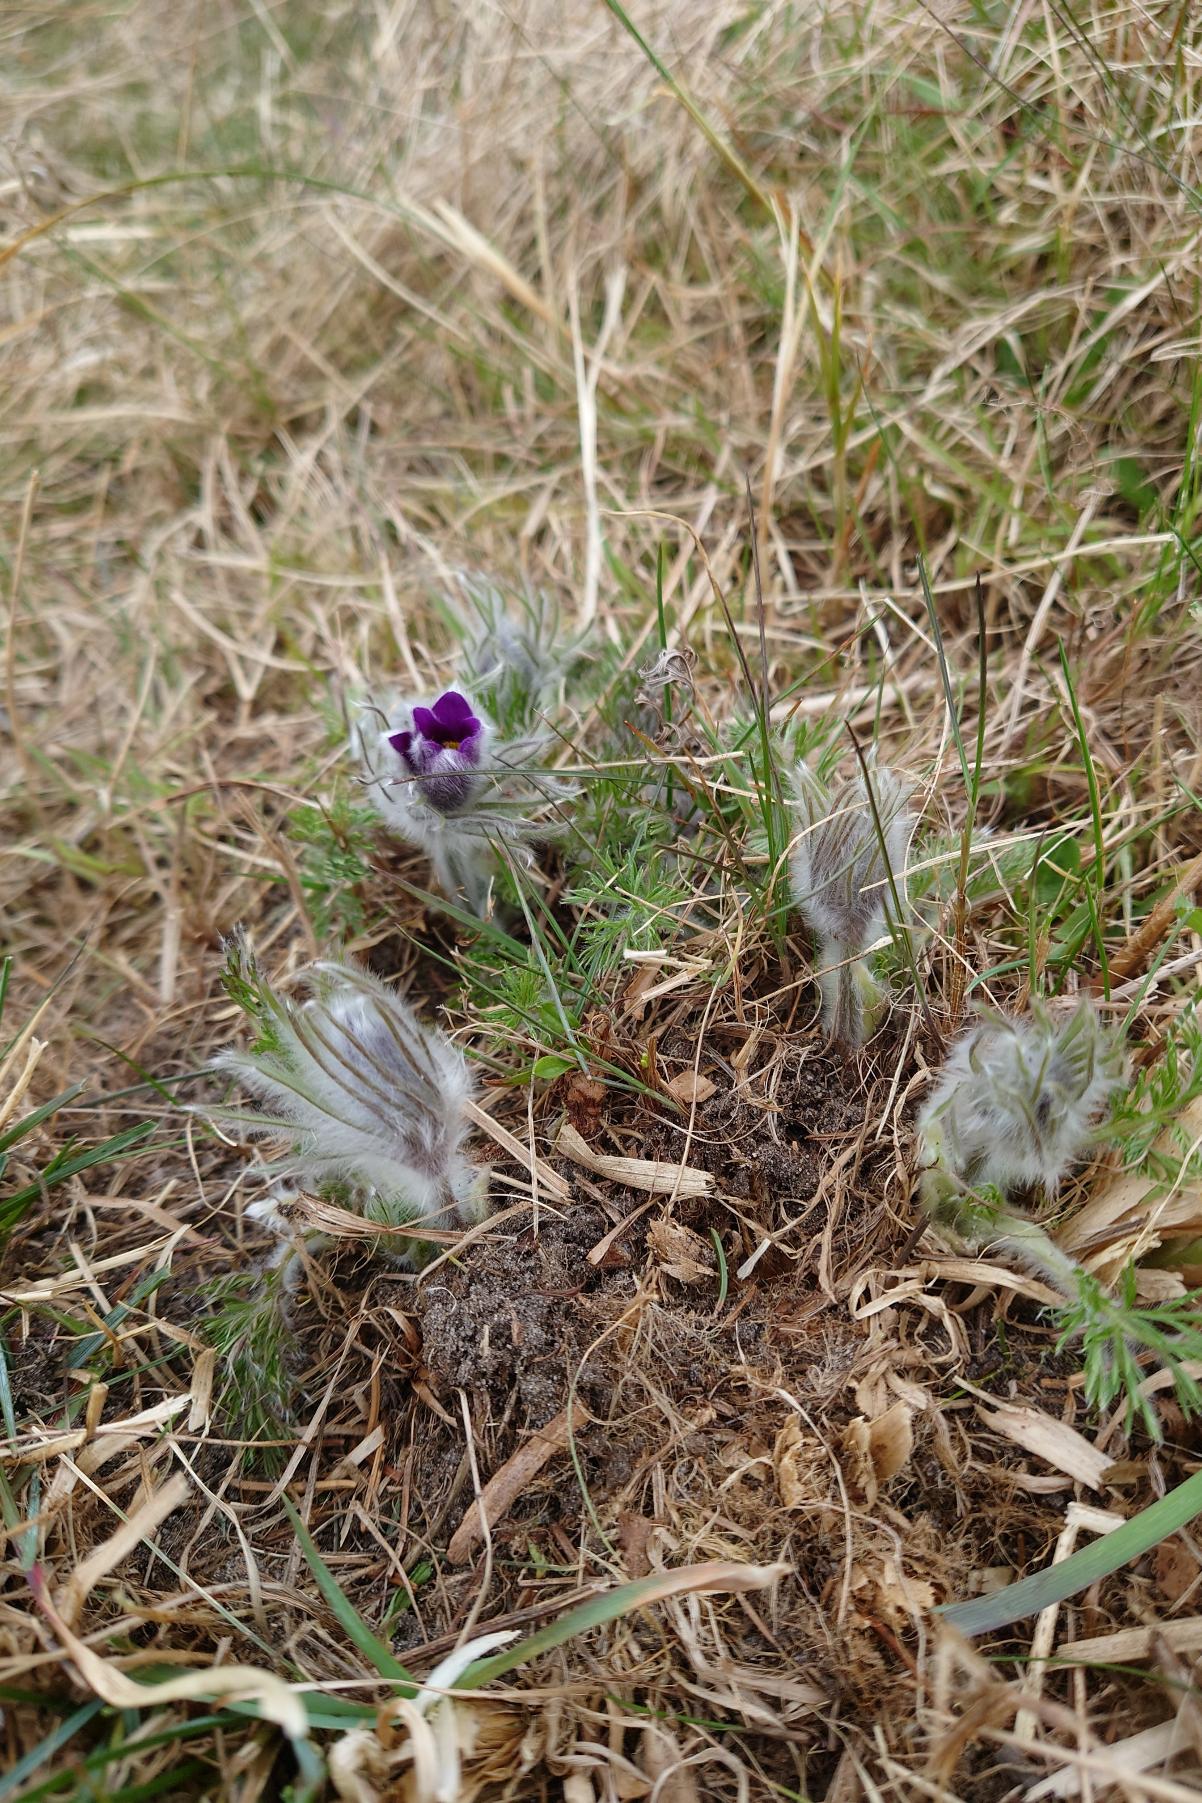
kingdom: Plantae
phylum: Tracheophyta
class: Magnoliopsida
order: Ranunculales
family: Ranunculaceae
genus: Pulsatilla
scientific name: Pulsatilla vulgaris
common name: Opret kobjælde
